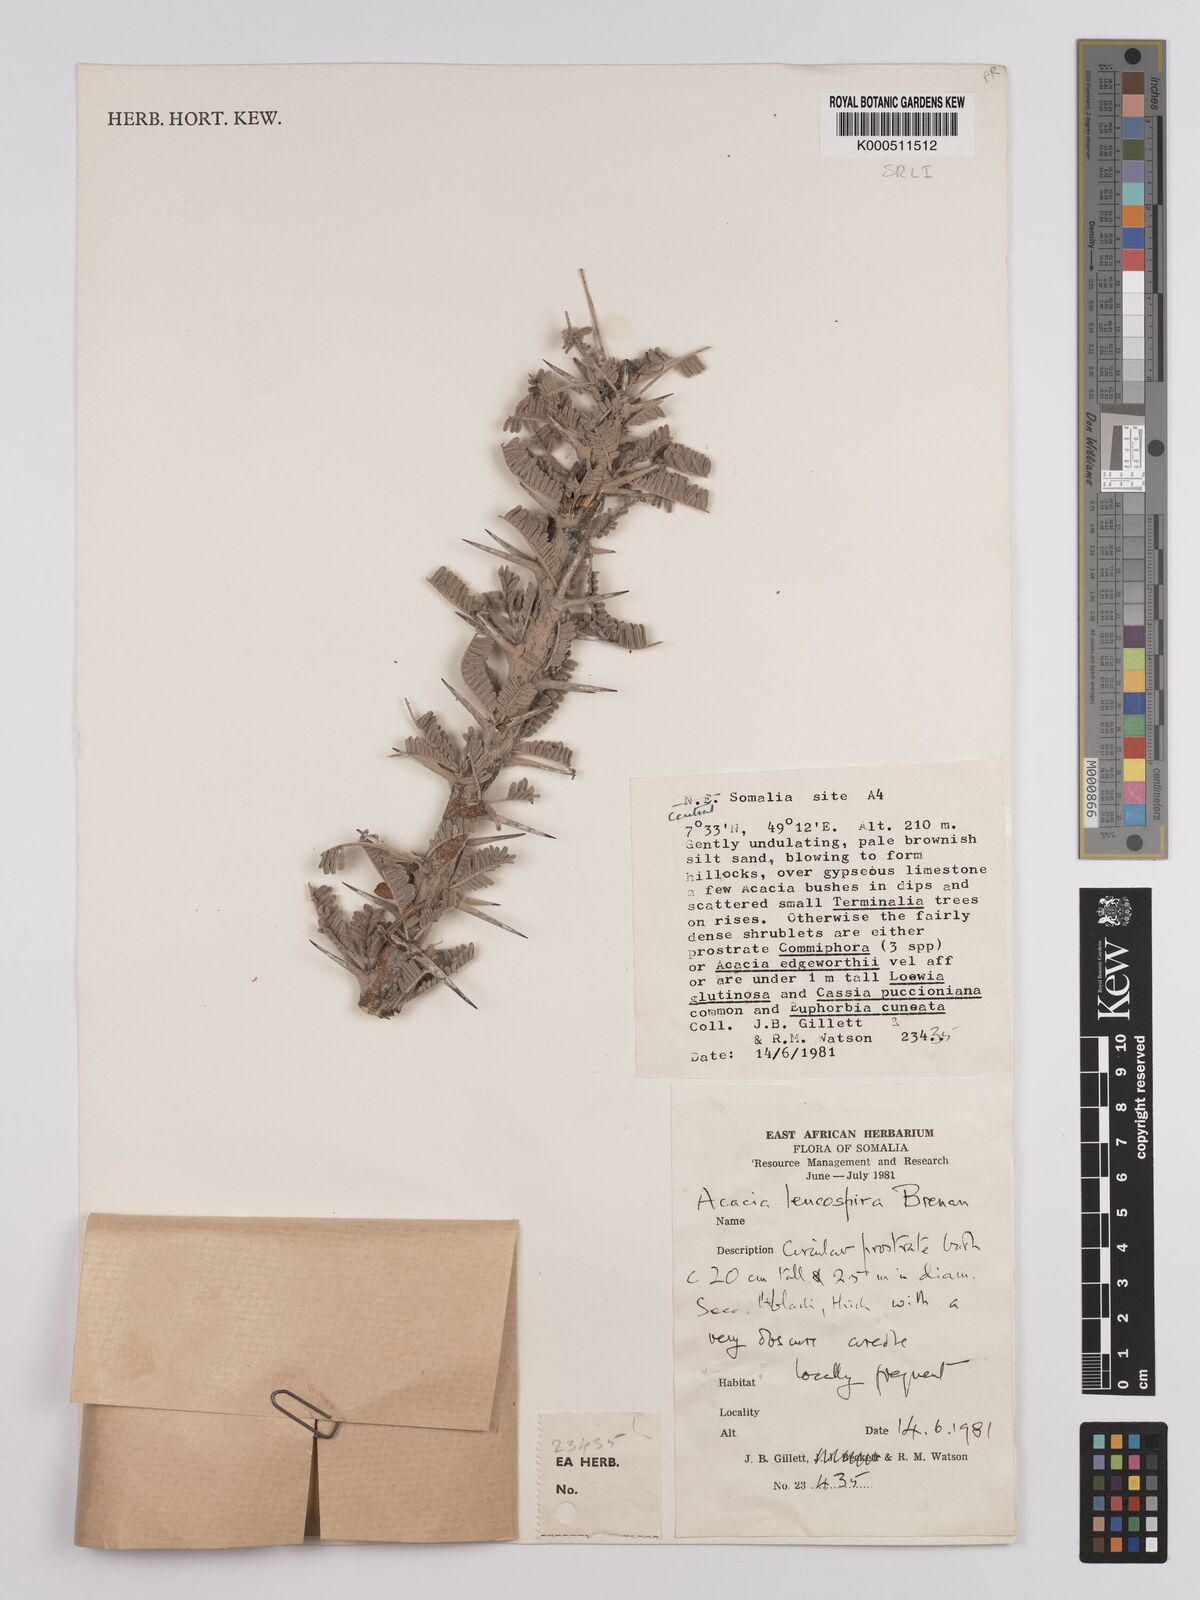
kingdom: Plantae
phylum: Tracheophyta
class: Magnoliopsida
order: Fabales
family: Fabaceae
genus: Vachellia
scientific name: Vachellia leucospira
